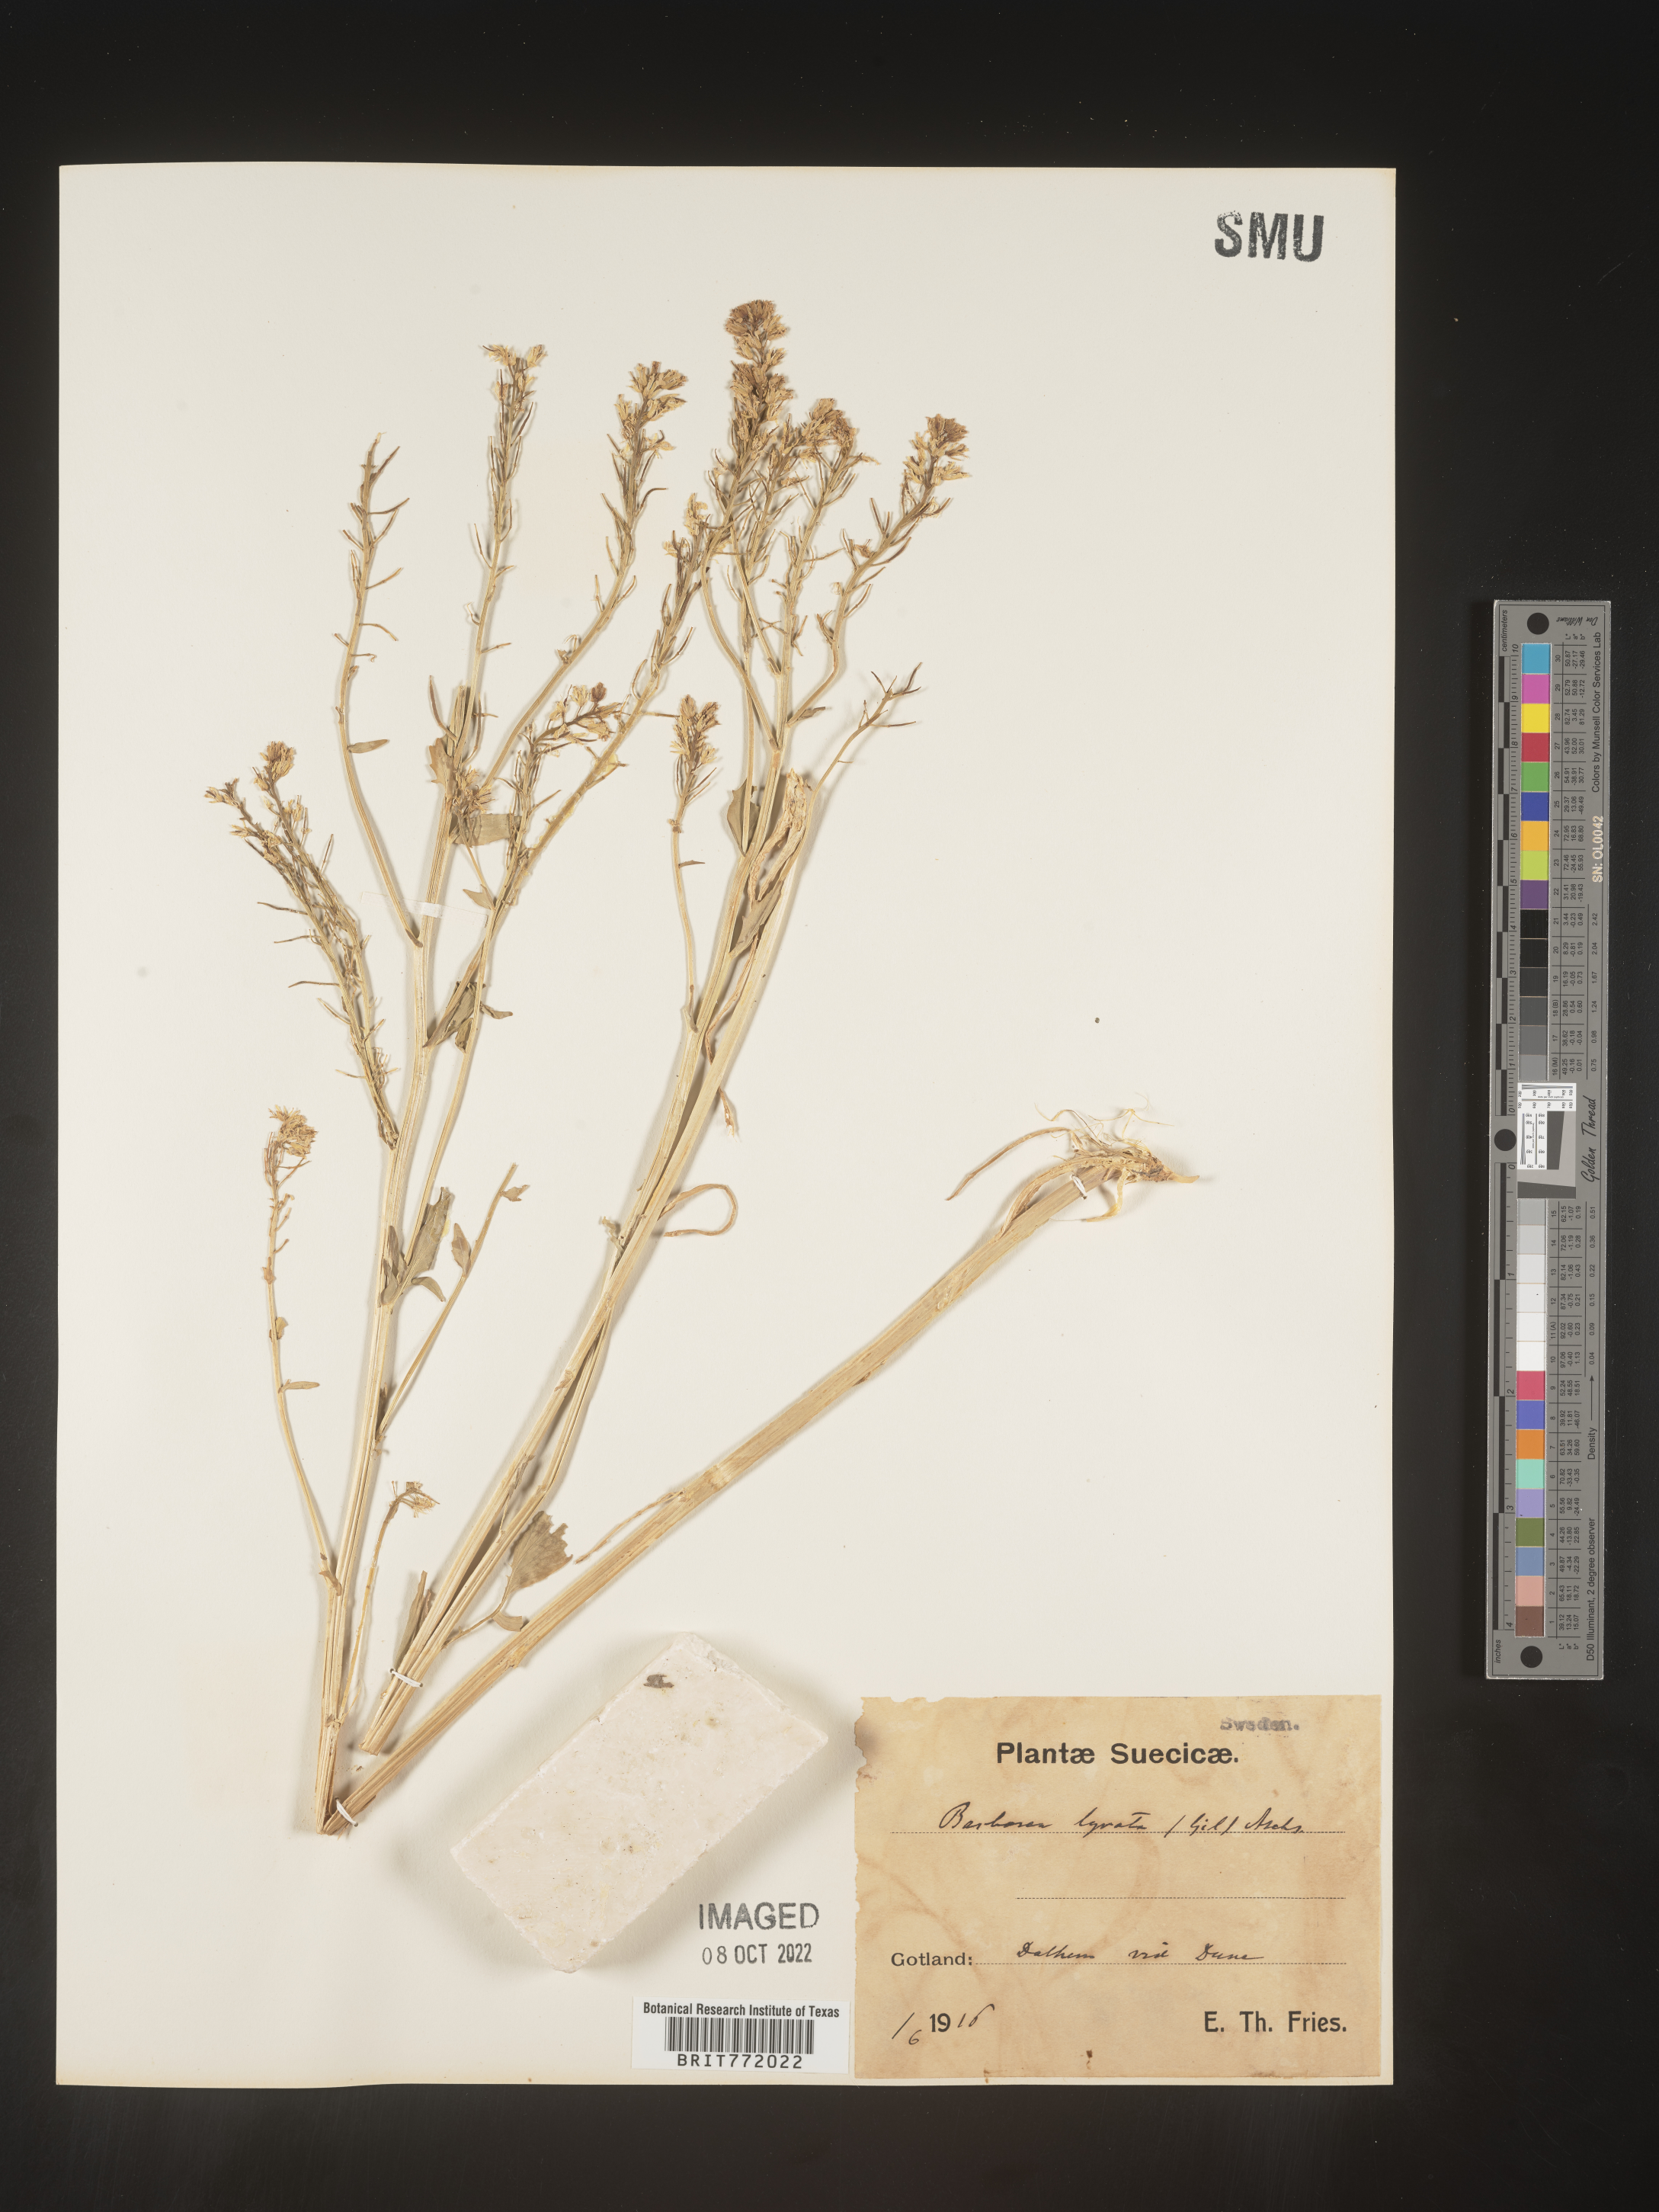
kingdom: Plantae
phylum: Tracheophyta
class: Magnoliopsida
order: Brassicales
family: Brassicaceae
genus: Barbarea
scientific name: Barbarea
